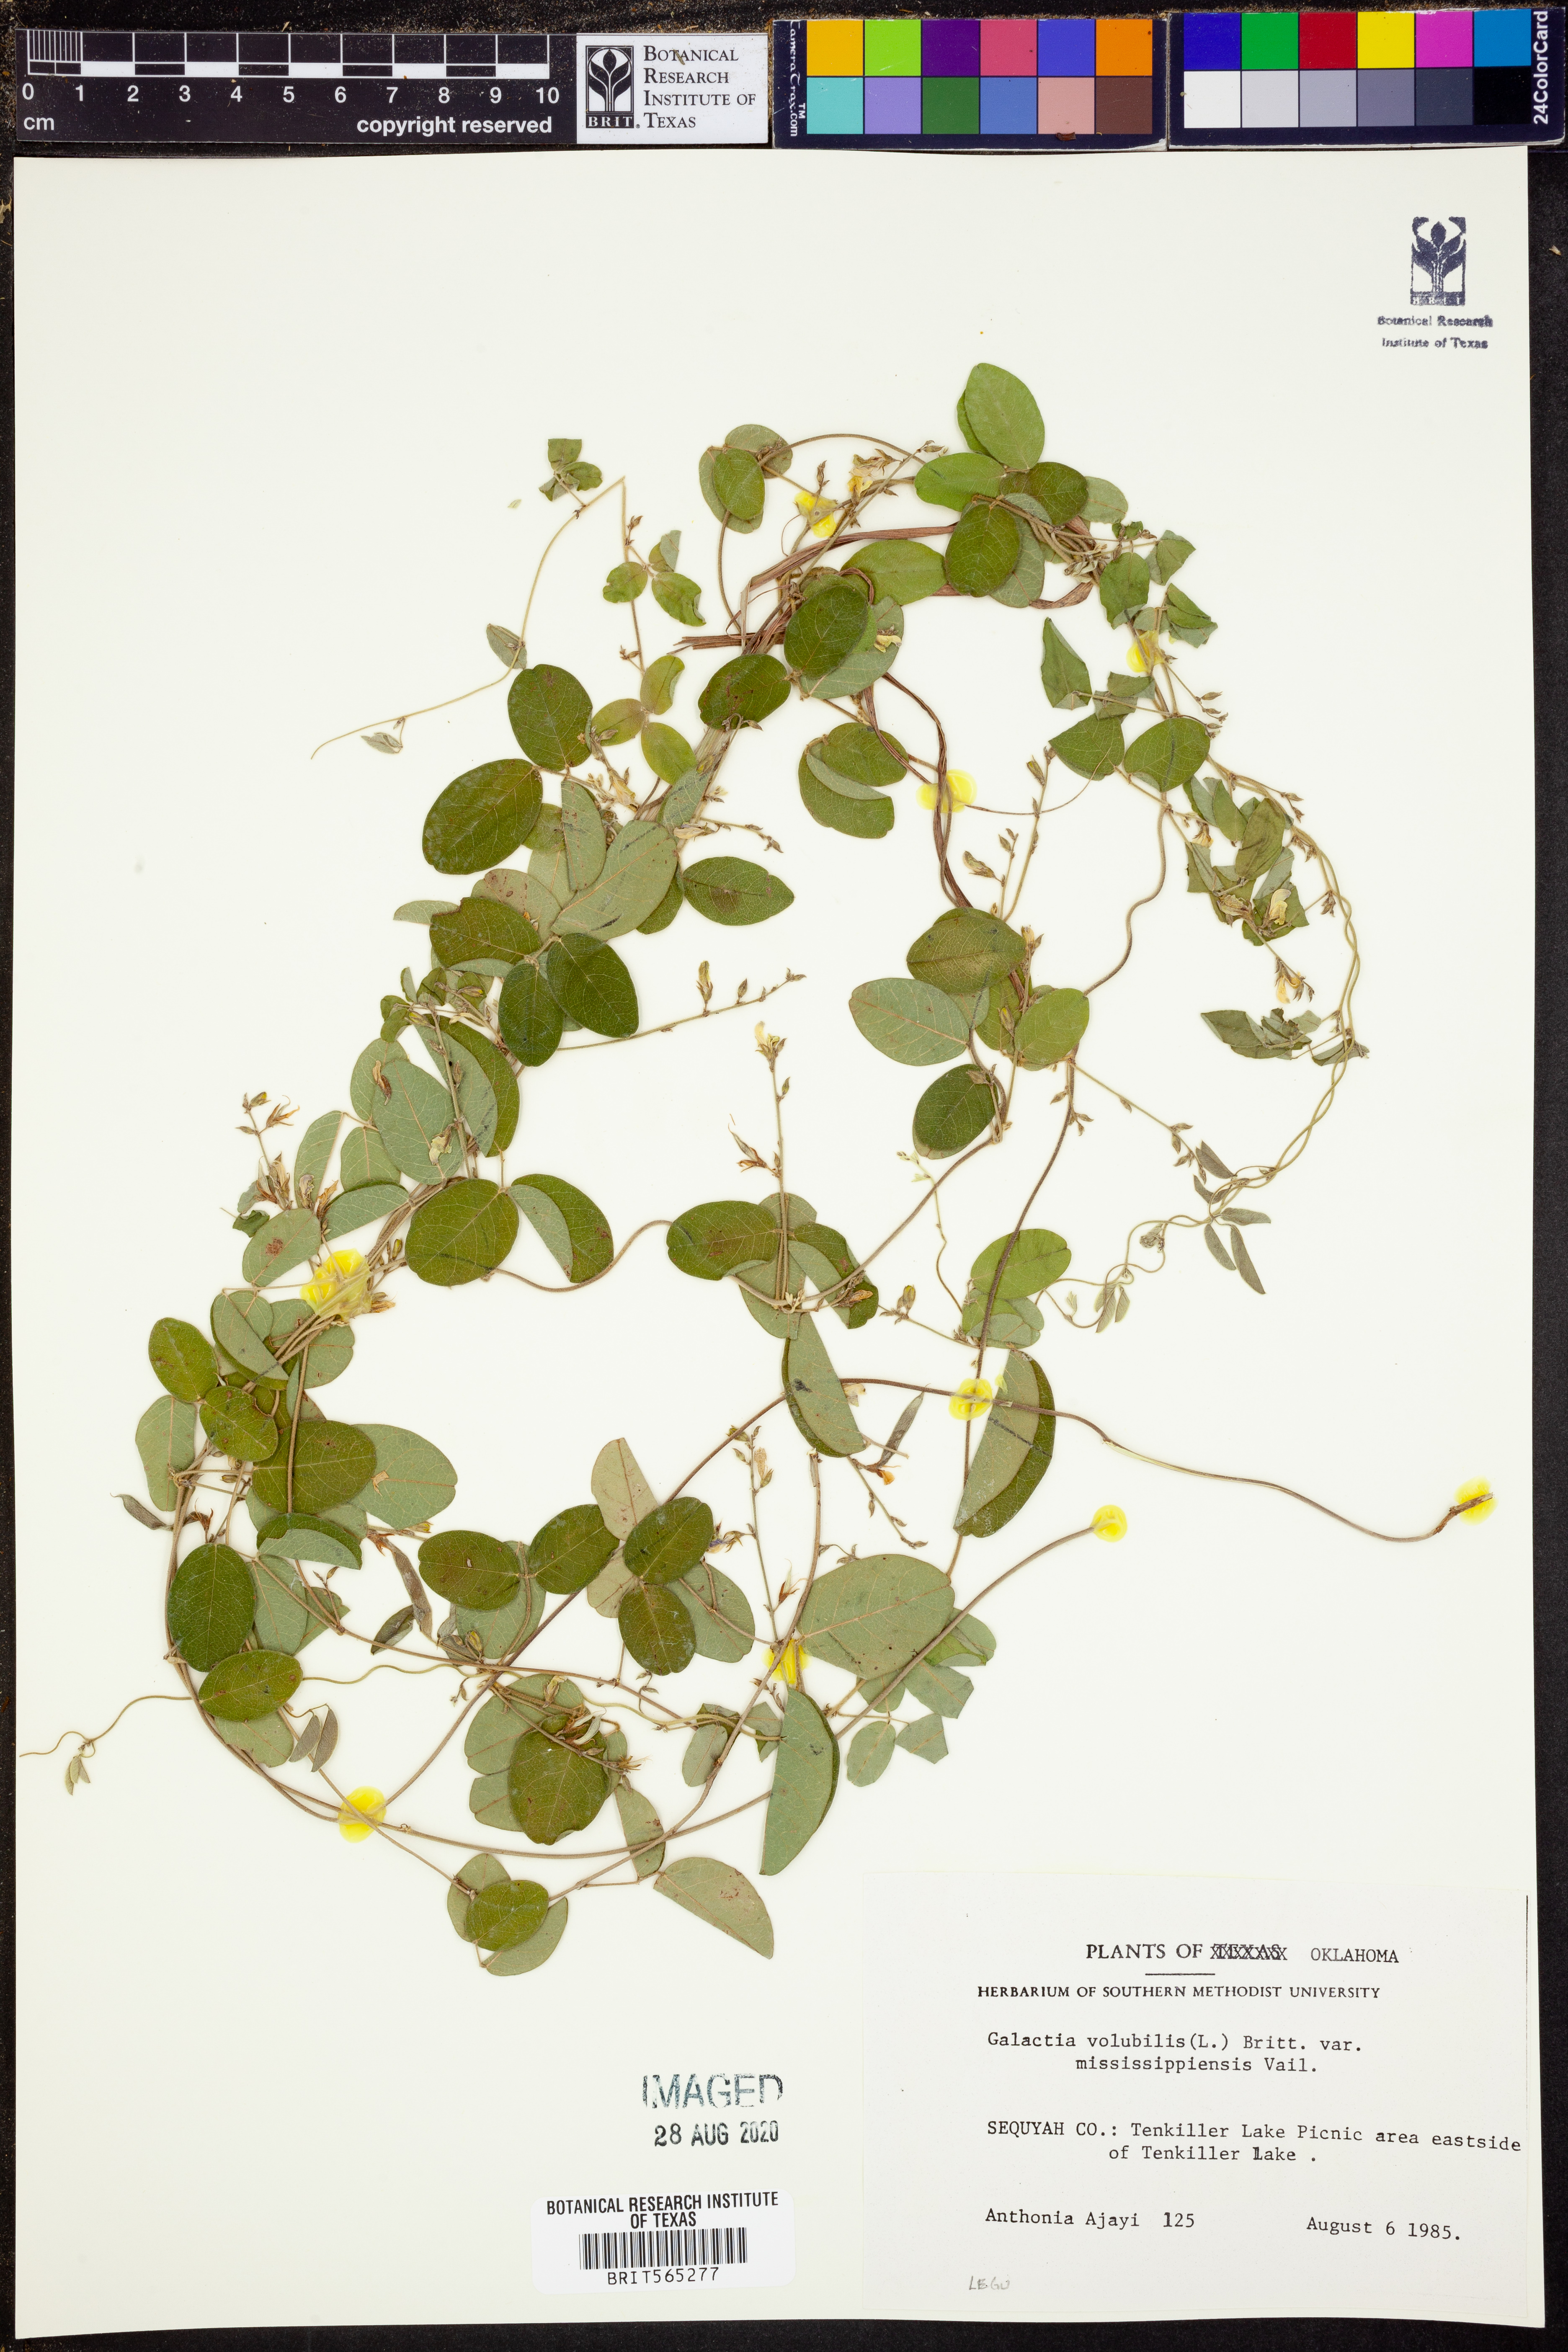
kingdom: Plantae
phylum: Tracheophyta
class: Magnoliopsida
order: Fabales
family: Fabaceae
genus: Galactia
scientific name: Galactia volubilis
